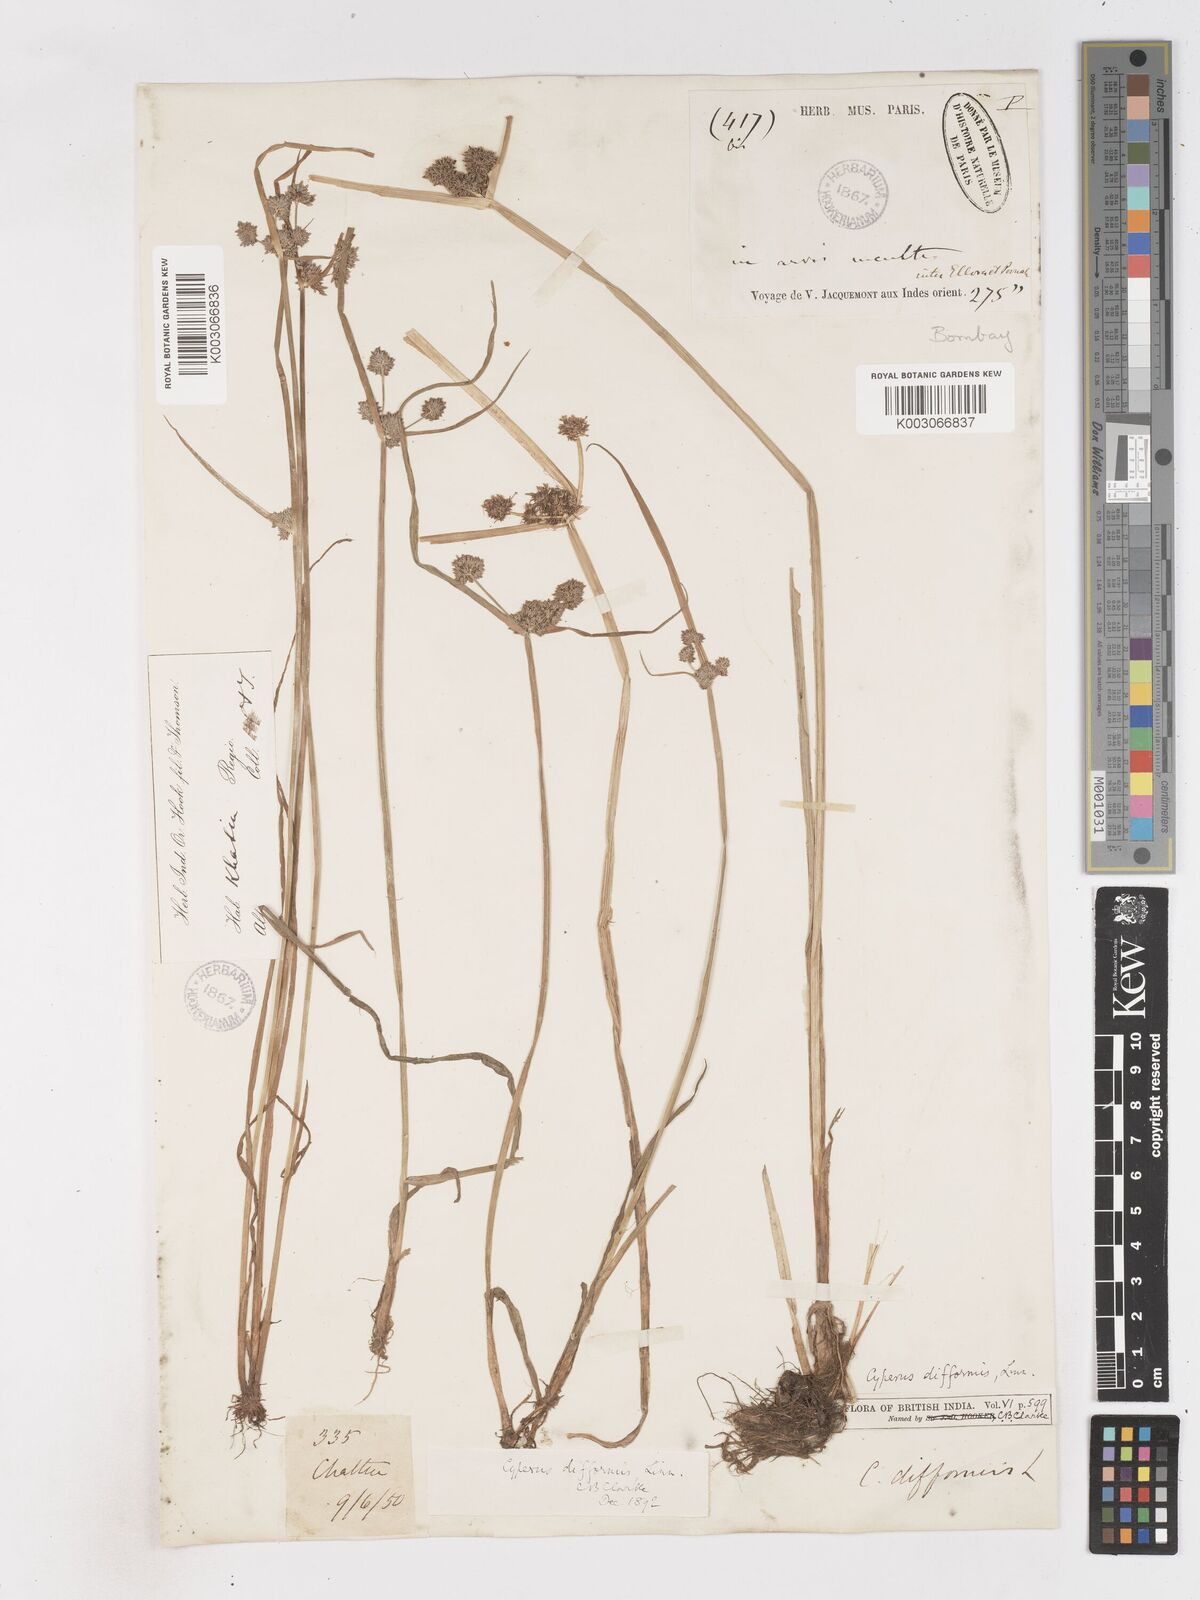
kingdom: Plantae
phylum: Tracheophyta
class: Liliopsida
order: Poales
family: Cyperaceae
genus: Cyperus
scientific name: Cyperus difformis
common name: Variable flatsedge
